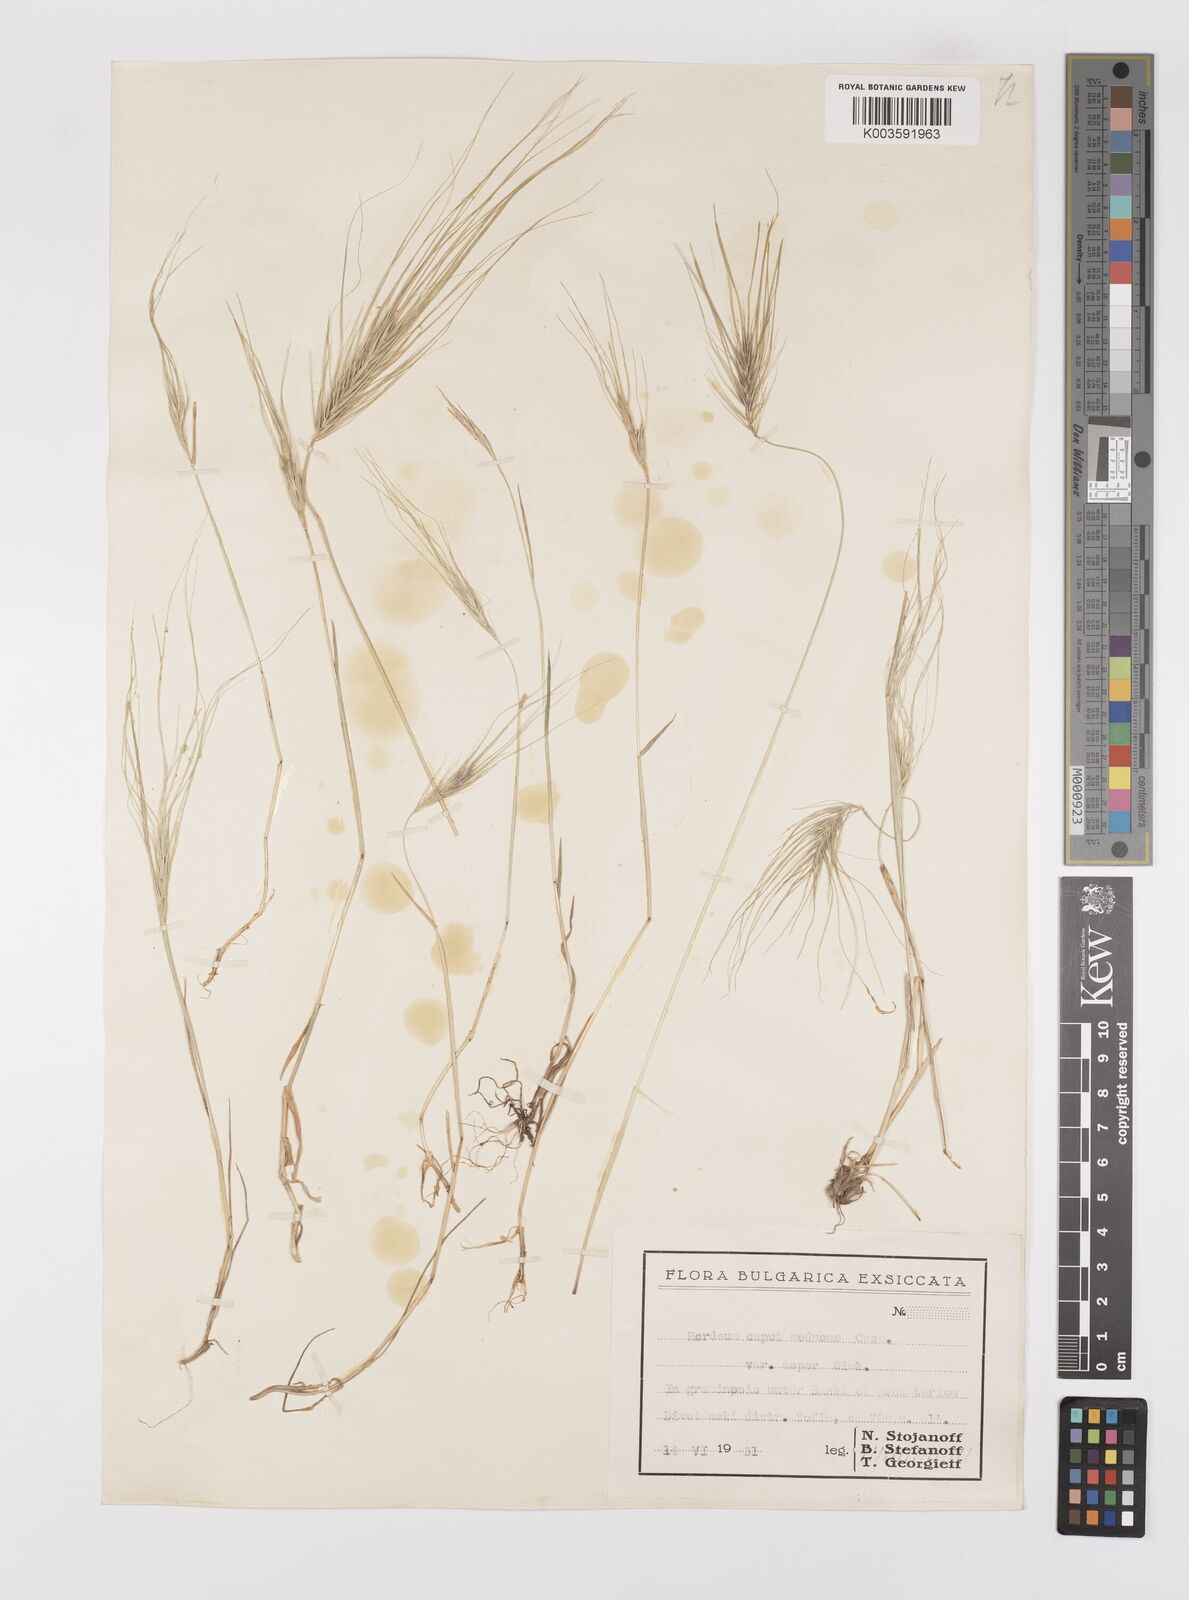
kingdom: Plantae
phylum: Tracheophyta
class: Liliopsida
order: Poales
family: Poaceae
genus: Taeniatherum
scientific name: Taeniatherum caput-medusae
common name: Medusahead
